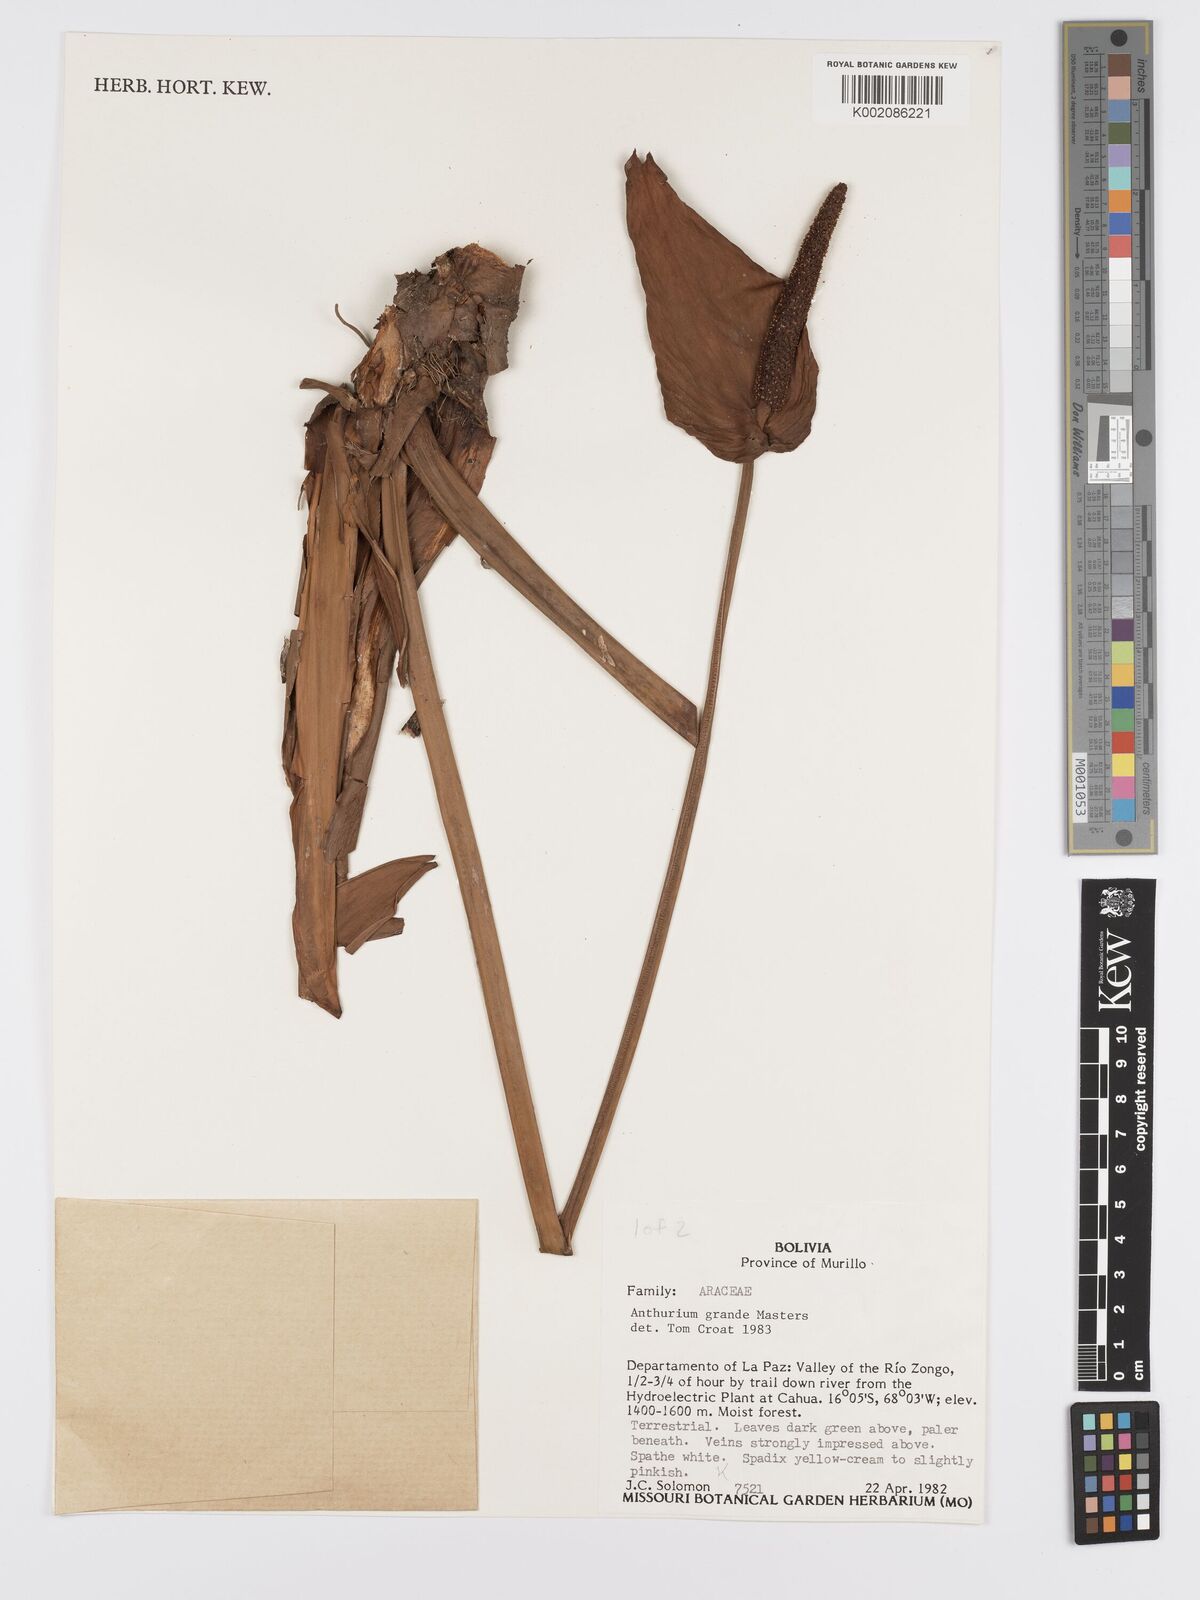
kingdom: Plantae
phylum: Tracheophyta
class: Liliopsida
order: Alismatales
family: Araceae
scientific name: Araceae
